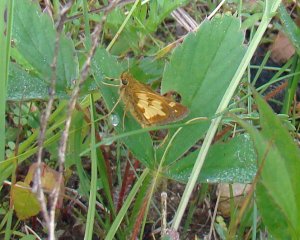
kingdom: Animalia
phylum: Arthropoda
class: Insecta
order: Lepidoptera
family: Hesperiidae
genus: Polites
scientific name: Polites coras
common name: Peck's Skipper
